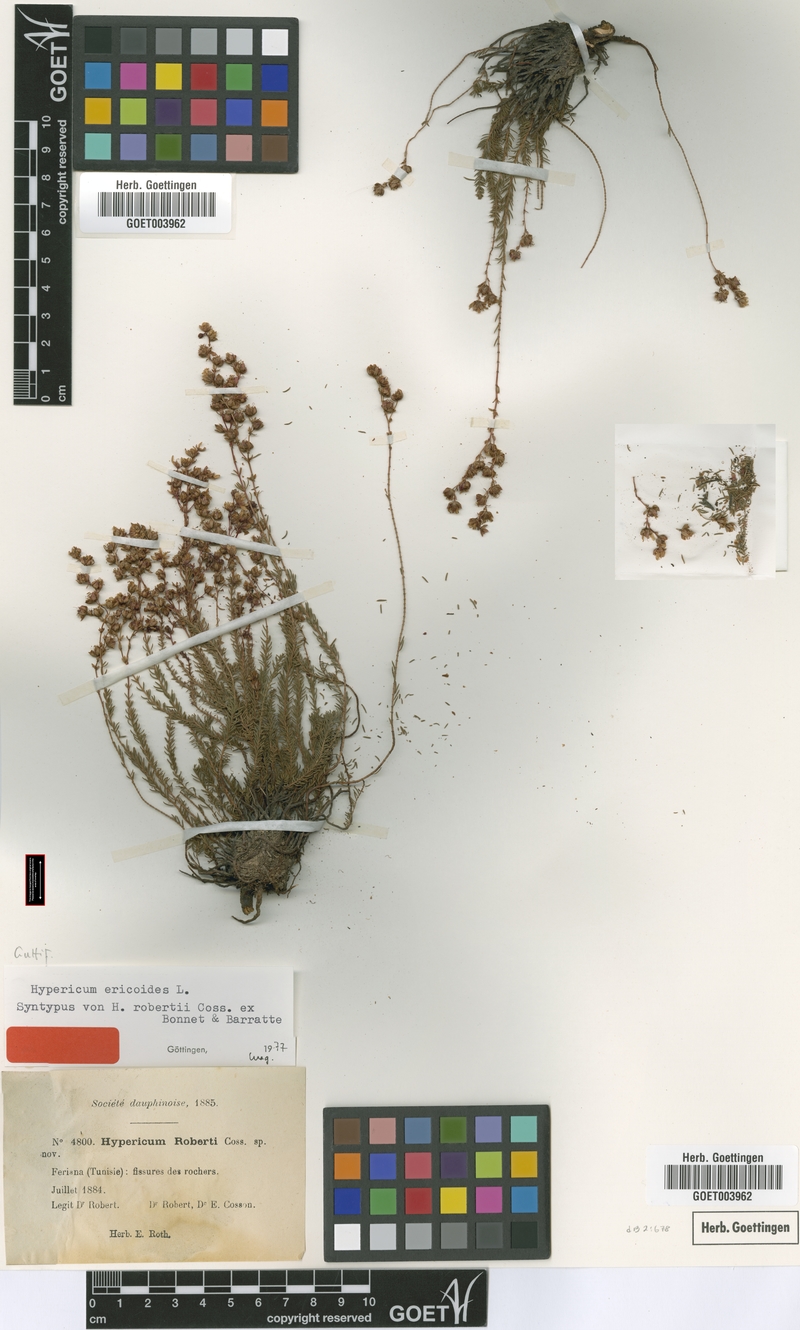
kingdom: Plantae
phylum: Tracheophyta
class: Magnoliopsida
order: Malpighiales
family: Hypericaceae
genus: Hypericum
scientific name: Hypericum ericoides
